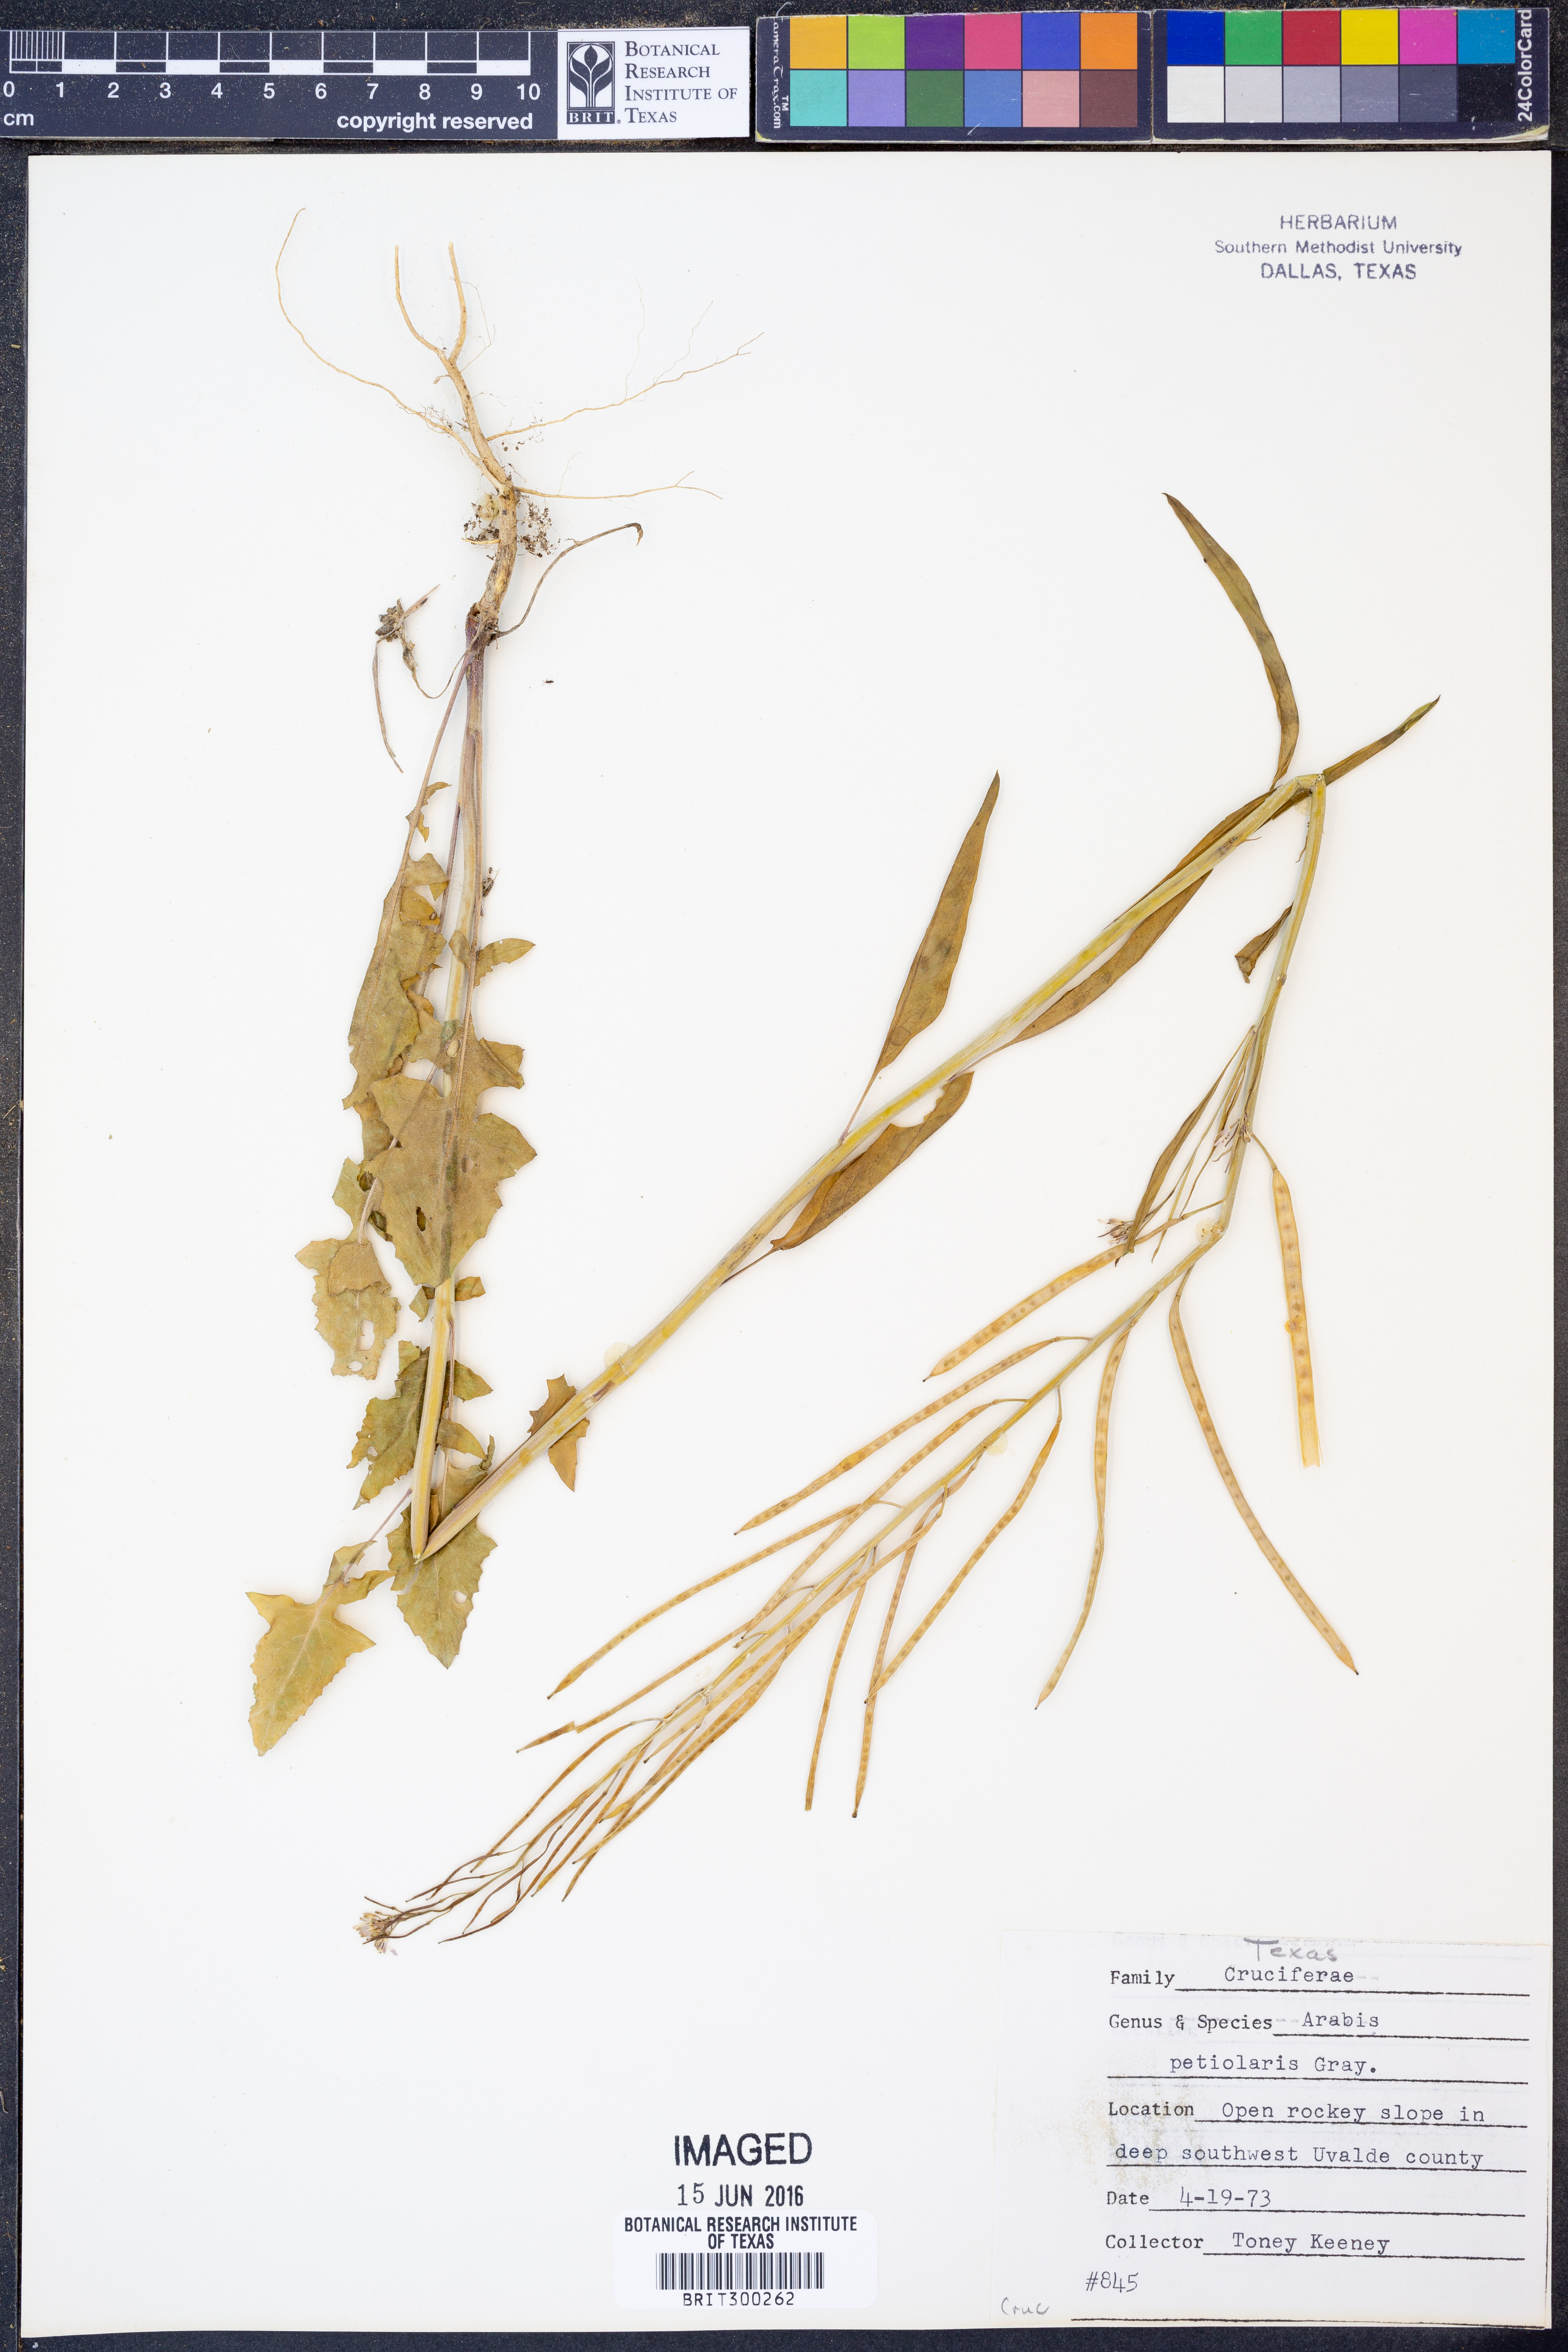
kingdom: Plantae
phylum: Tracheophyta
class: Magnoliopsida
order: Brassicales
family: Brassicaceae
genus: Streptanthus
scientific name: Streptanthus petiolaris
